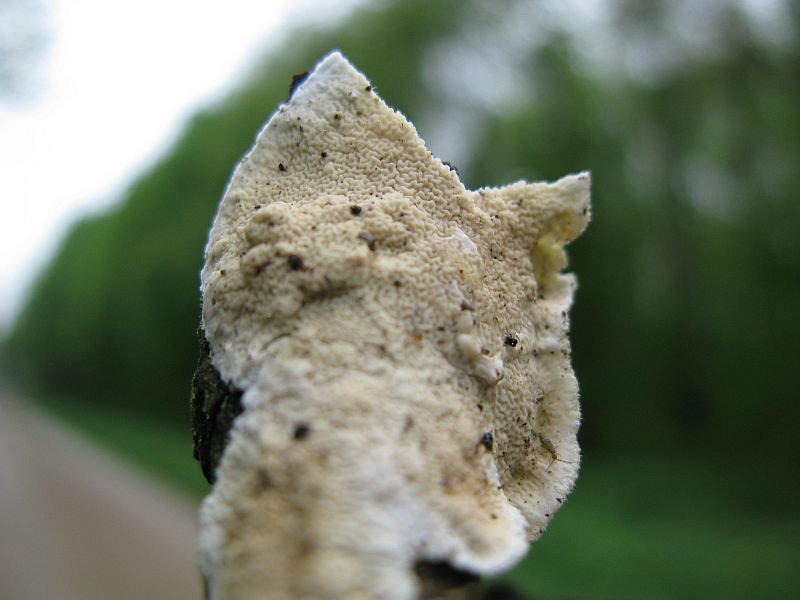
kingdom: Fungi
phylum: Basidiomycota
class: Agaricomycetes
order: Polyporales
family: Irpicaceae
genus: Byssomerulius
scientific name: Byssomerulius corium
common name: læder-åresvamp
